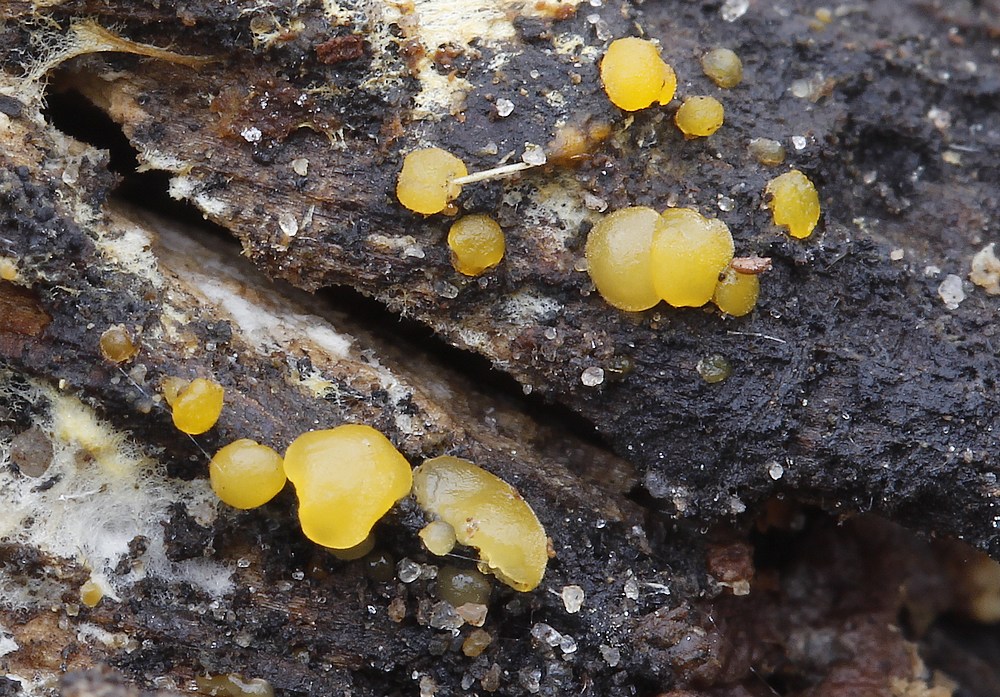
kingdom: Fungi
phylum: Basidiomycota
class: Dacrymycetes
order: Dacrymycetales
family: Dacrymycetaceae
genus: Dacrymyces
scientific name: Dacrymyces minor
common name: lille tåresvamp
